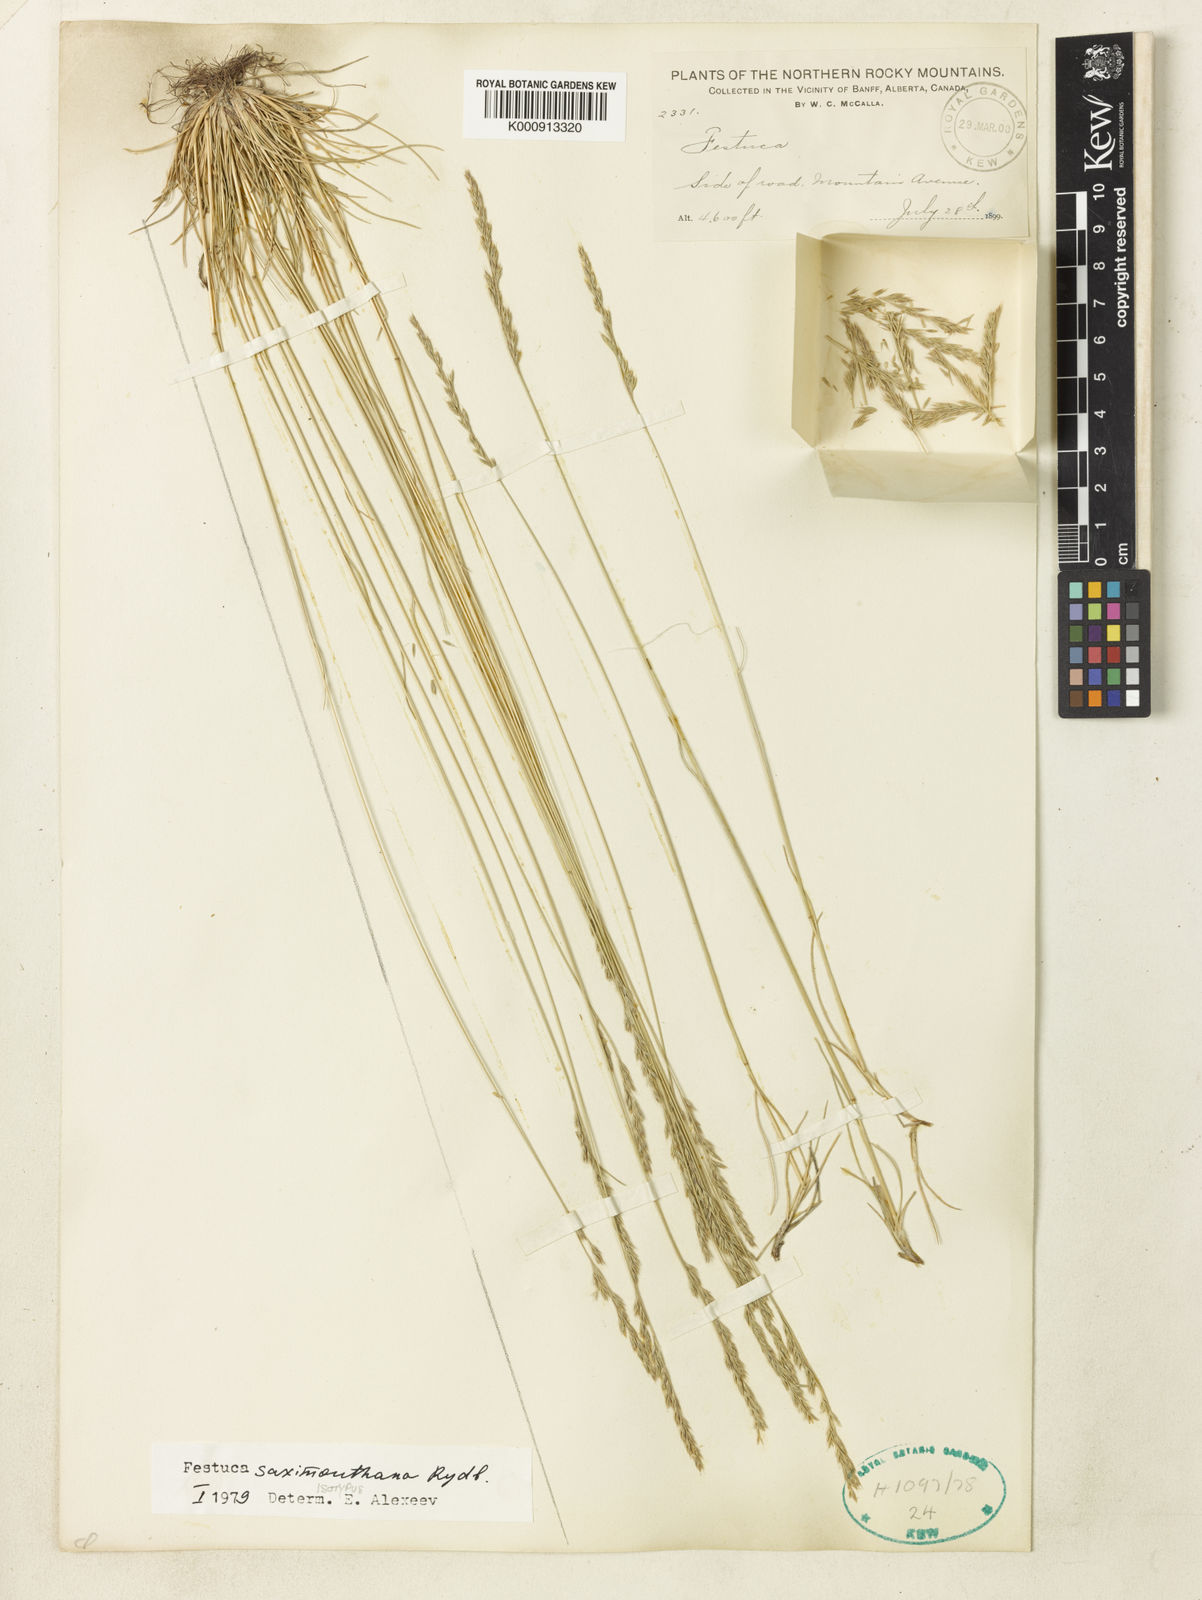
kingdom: Plantae
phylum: Tracheophyta
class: Liliopsida
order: Poales
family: Poaceae
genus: Festuca
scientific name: Festuca saximontana
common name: Mountain fescue
